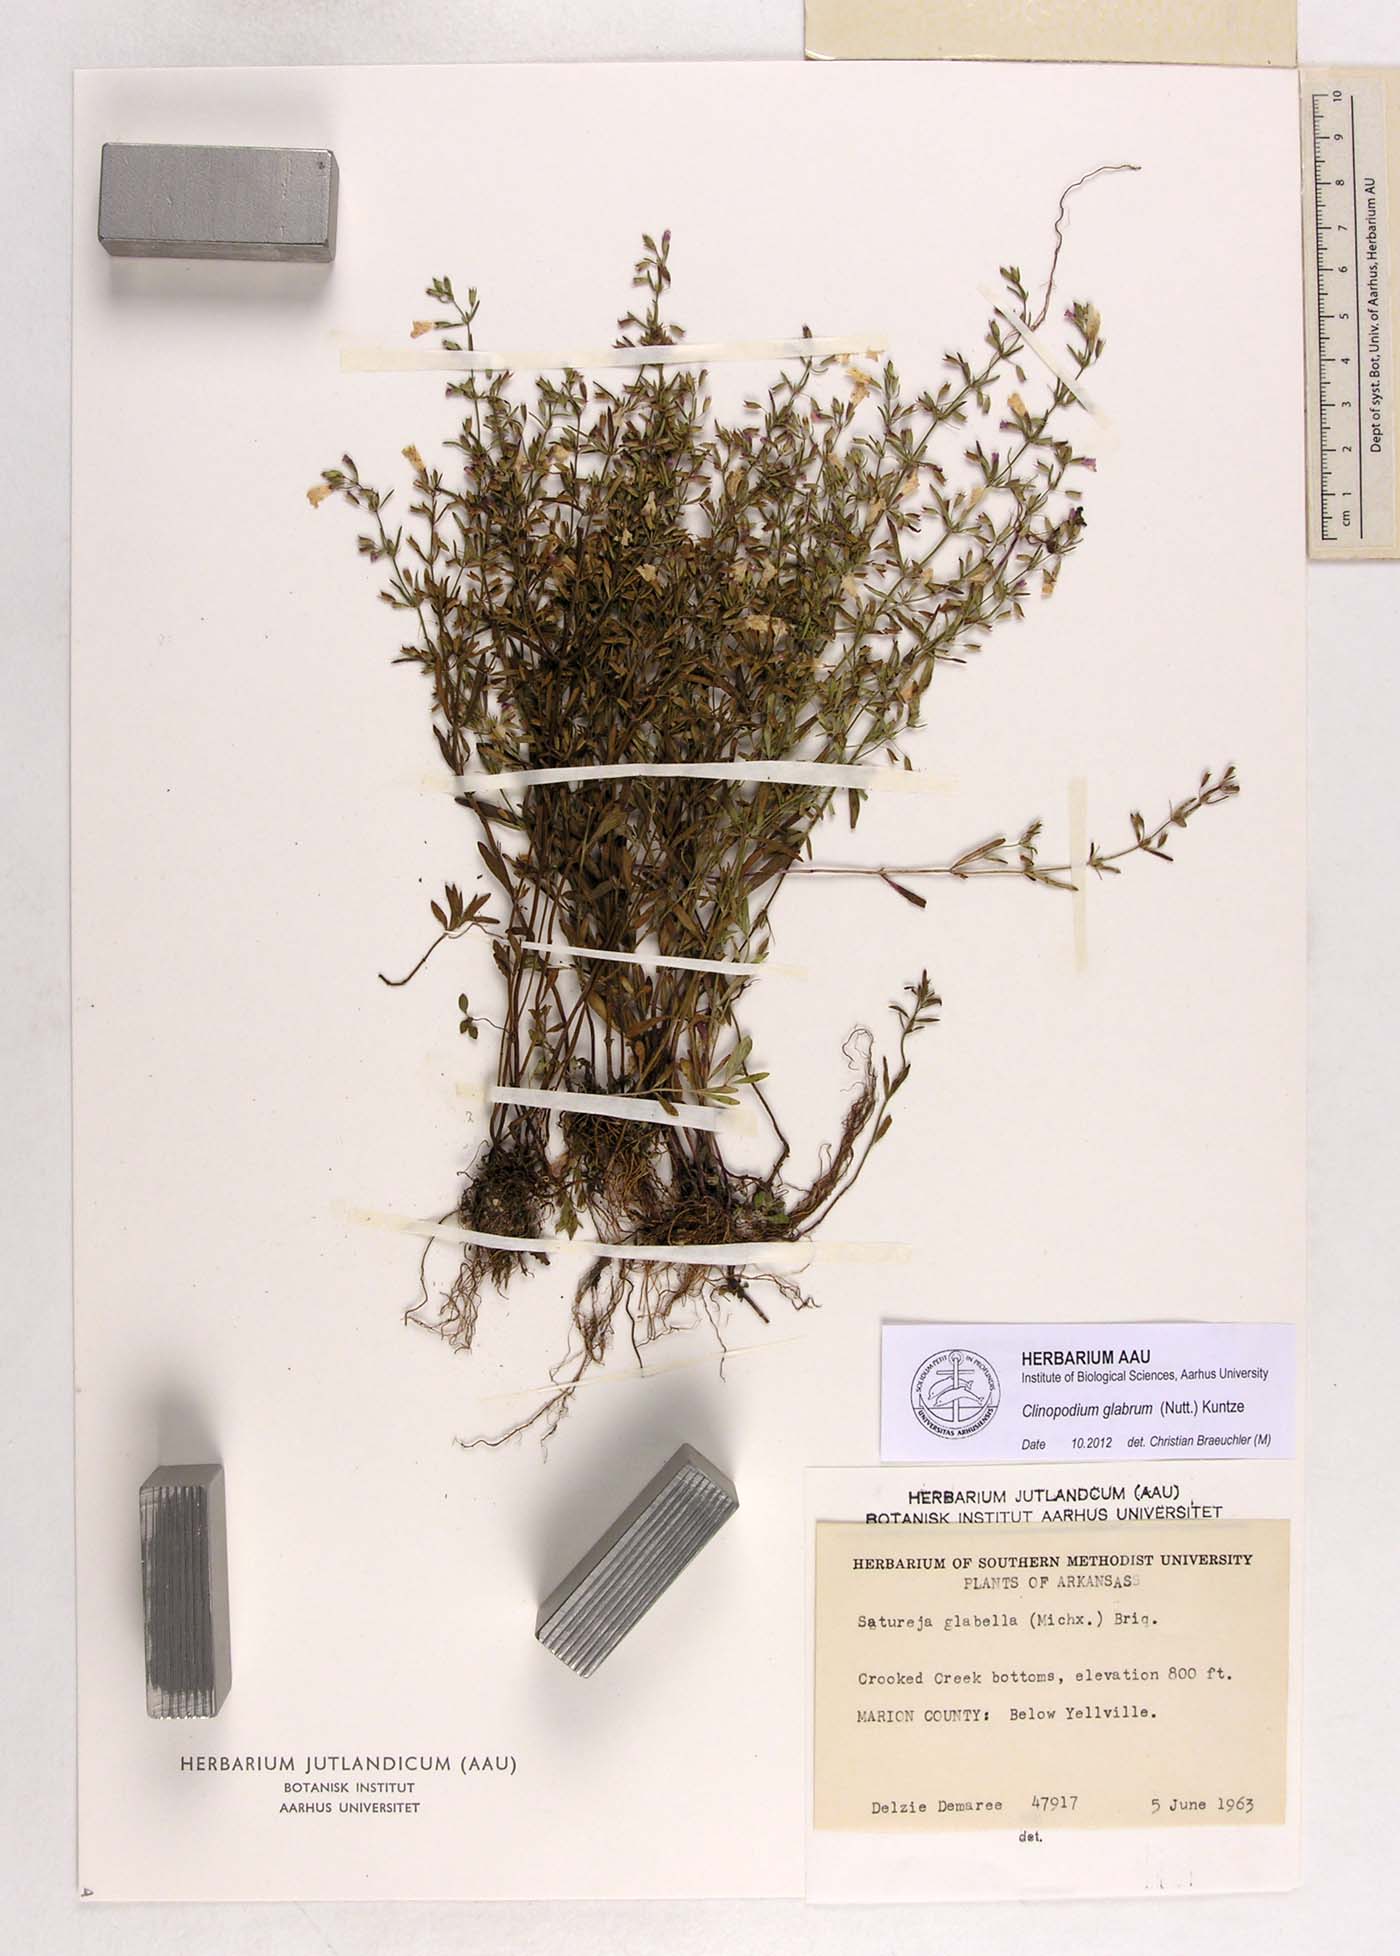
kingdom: Plantae
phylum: Tracheophyta
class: Magnoliopsida
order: Lamiales
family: Lamiaceae
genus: Hedeoma
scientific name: Hedeoma glabra
